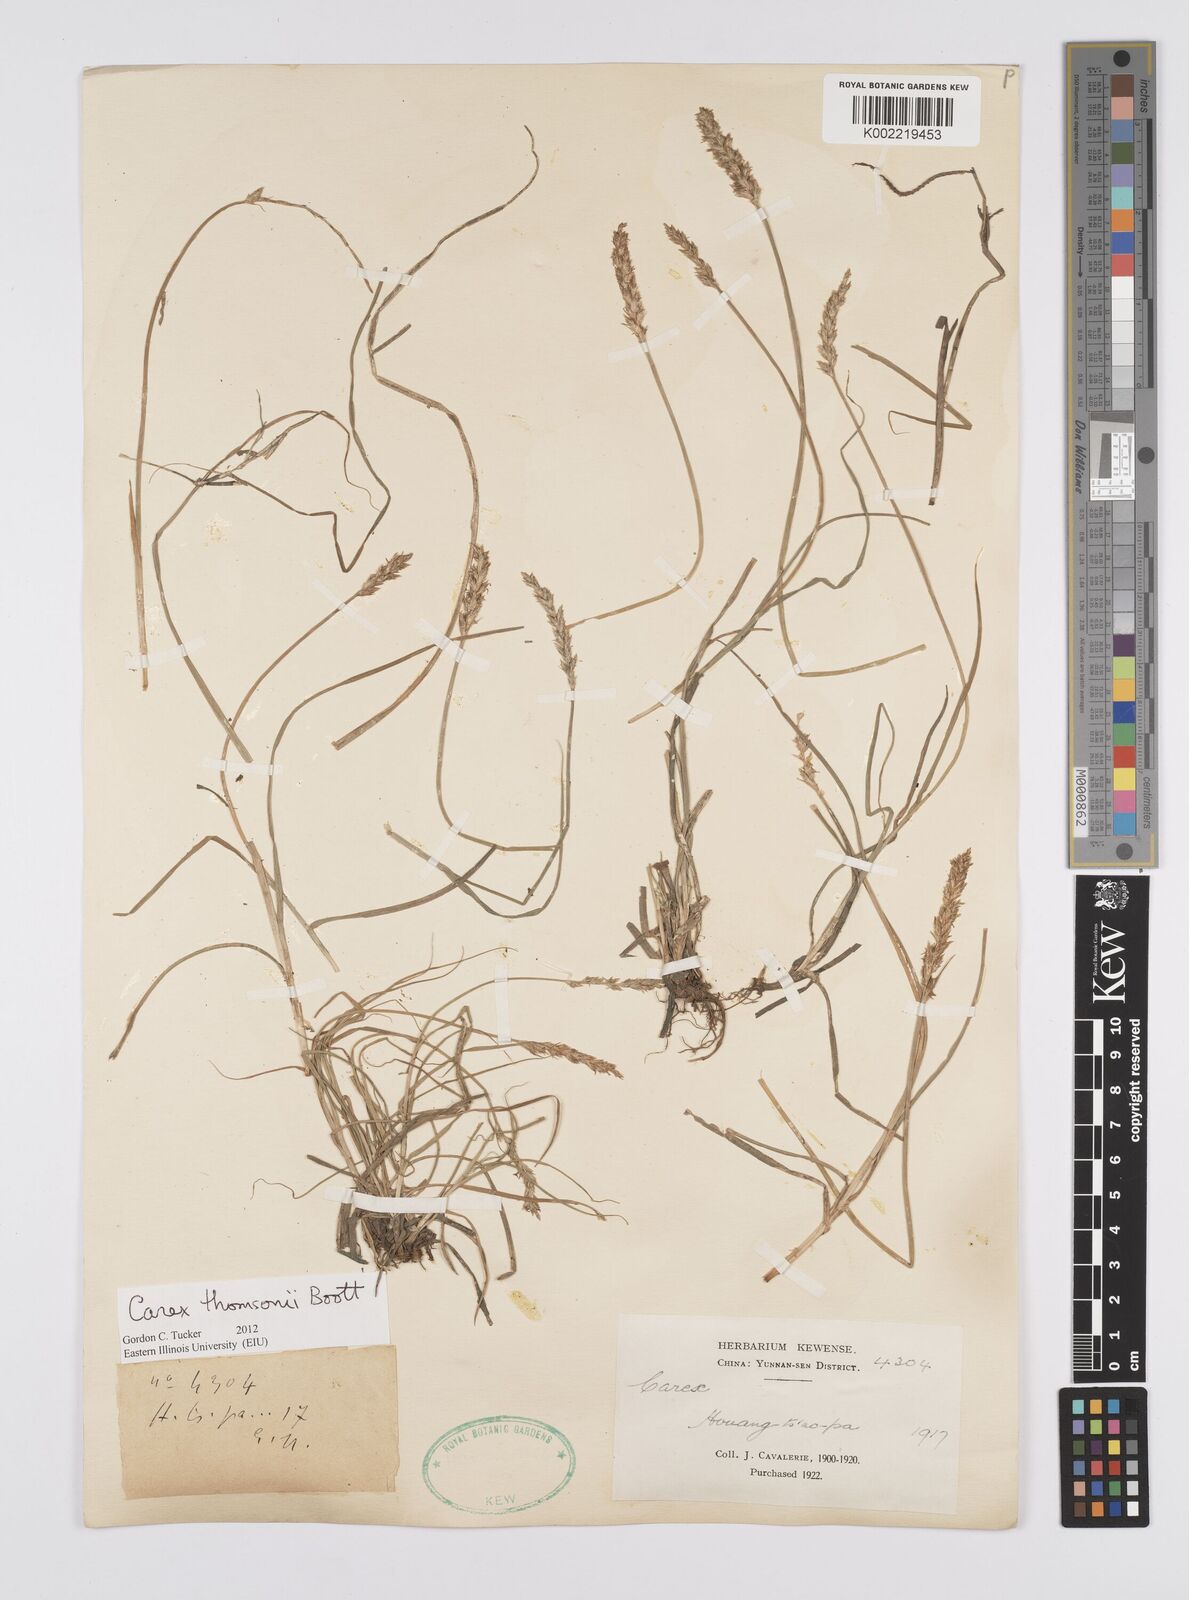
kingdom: Plantae
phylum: Tracheophyta
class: Liliopsida
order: Poales
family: Cyperaceae
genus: Carex
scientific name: Carex thomsonii
